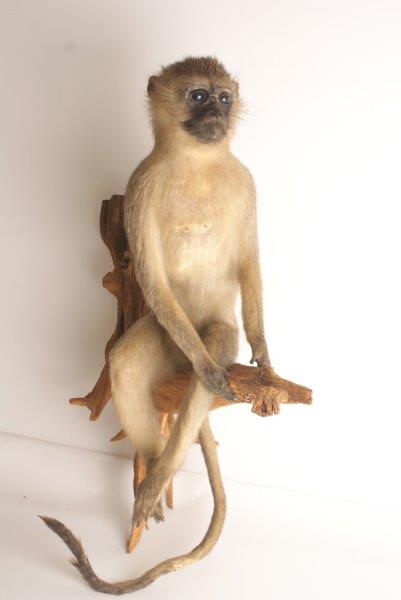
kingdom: Animalia
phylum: Chordata
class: Mammalia
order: Primates
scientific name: Primates
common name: Primates
